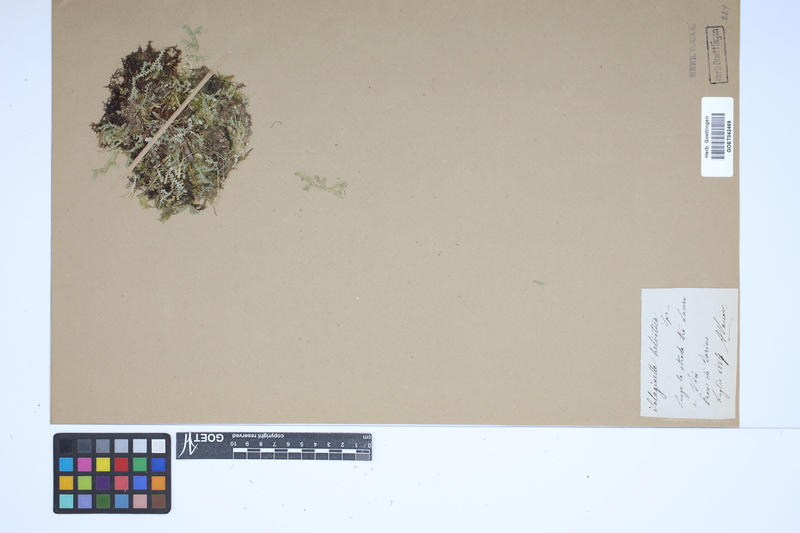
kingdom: Plantae
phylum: Tracheophyta
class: Lycopodiopsida
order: Selaginellales
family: Selaginellaceae
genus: Selaginella
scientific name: Selaginella helvetica
